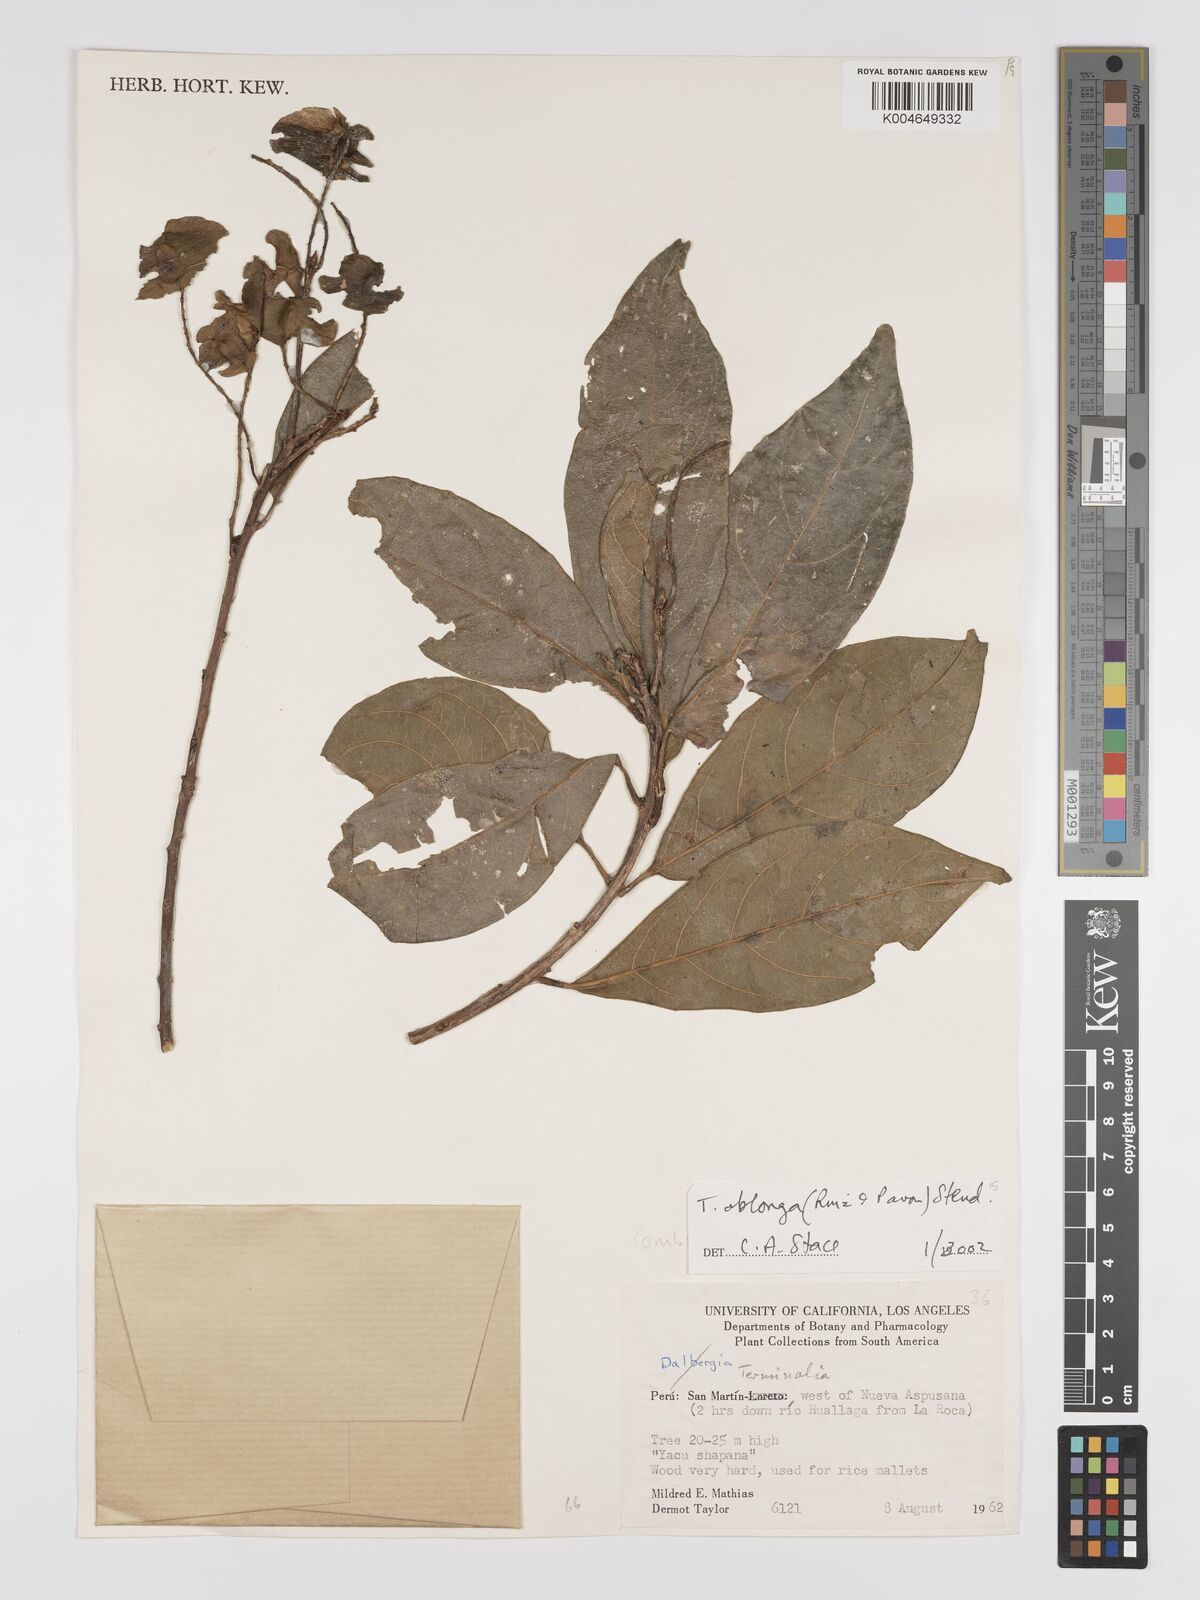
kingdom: Plantae
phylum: Tracheophyta
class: Magnoliopsida
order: Myrtales
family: Combretaceae
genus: Terminalia
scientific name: Terminalia oblonga
